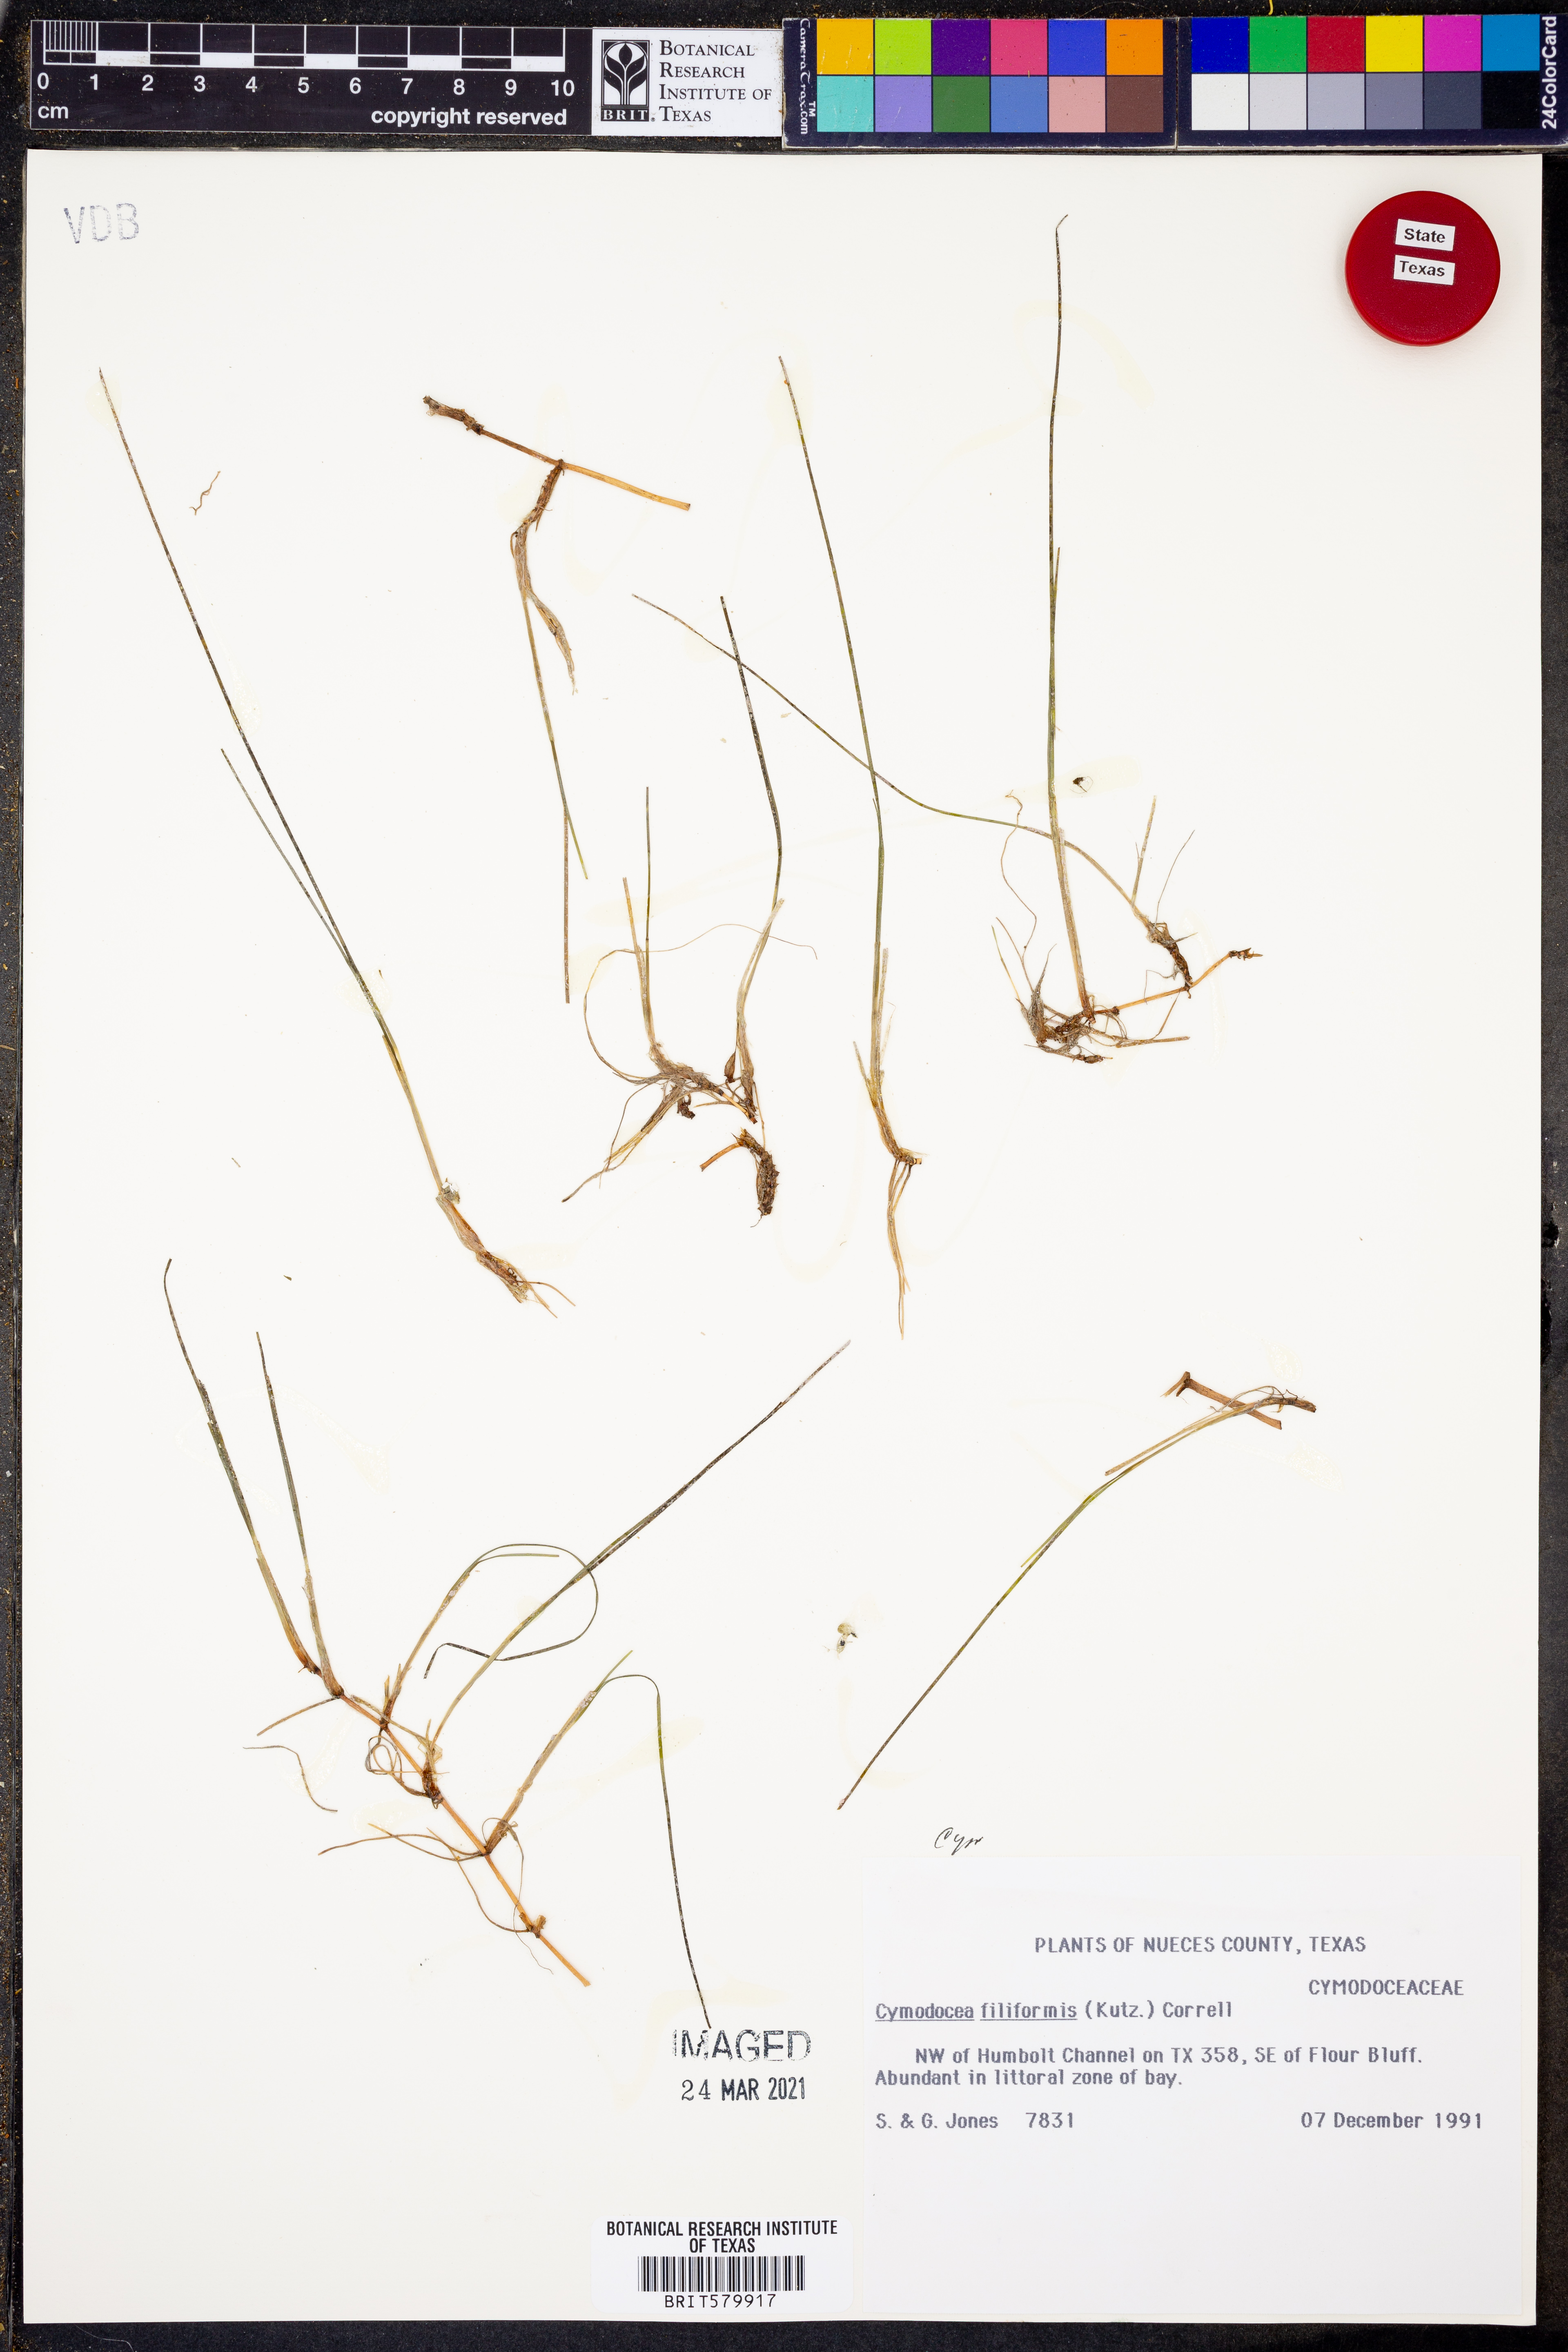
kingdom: Plantae
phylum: Tracheophyta
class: Liliopsida
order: Alismatales
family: Cymodoceaceae
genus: Syringodium
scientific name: Syringodium filiforme
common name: Manatee grass
